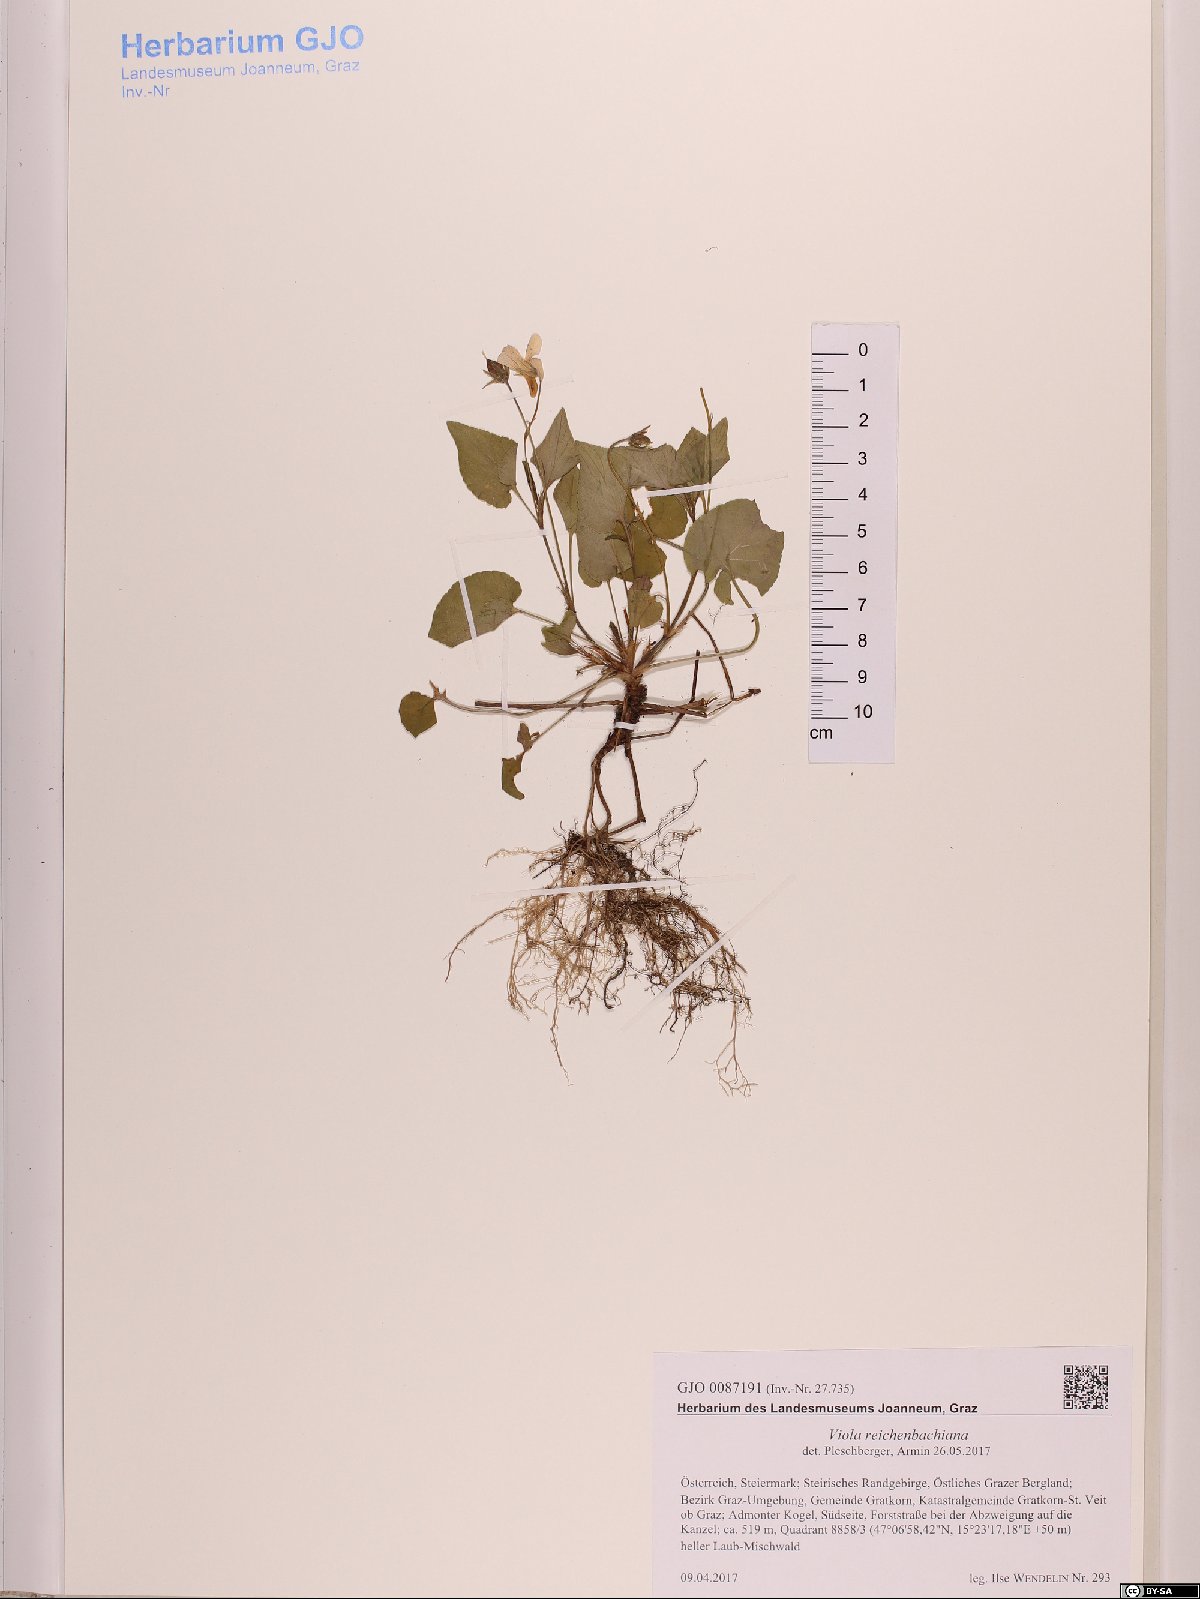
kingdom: Plantae
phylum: Tracheophyta
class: Magnoliopsida
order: Malpighiales
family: Violaceae
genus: Viola
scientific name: Viola reichenbachiana
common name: Early dog-violet
